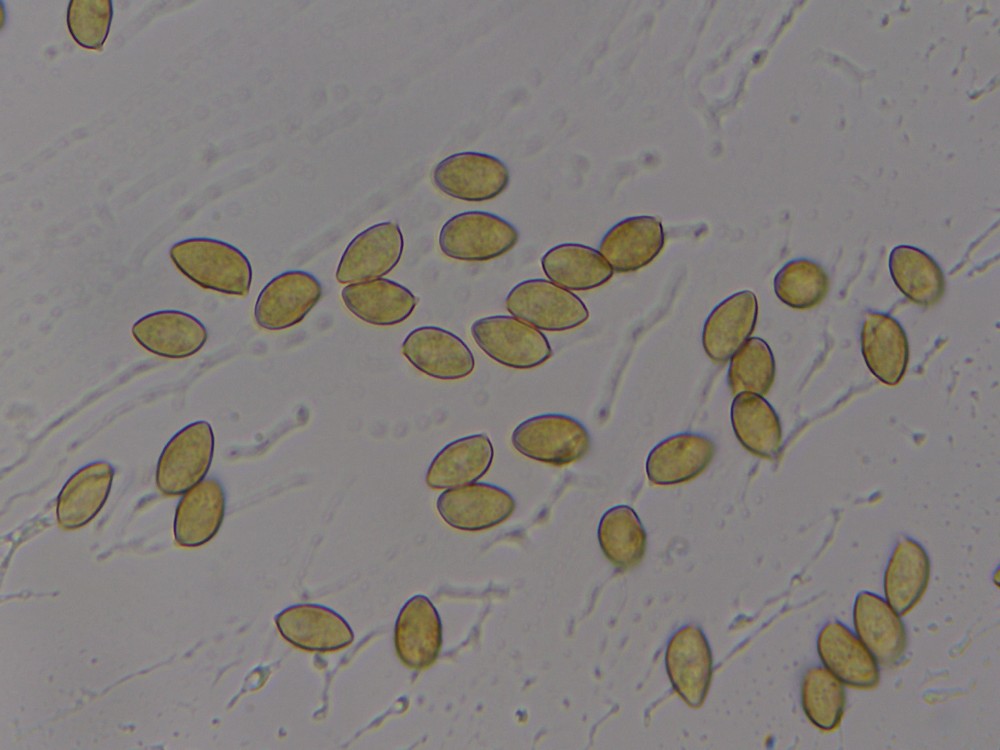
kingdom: Fungi
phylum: Basidiomycota
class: Agaricomycetes
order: Agaricales
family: Hymenogastraceae
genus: Galerina
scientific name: Galerina marginata
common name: randbæltet hjelmhat
